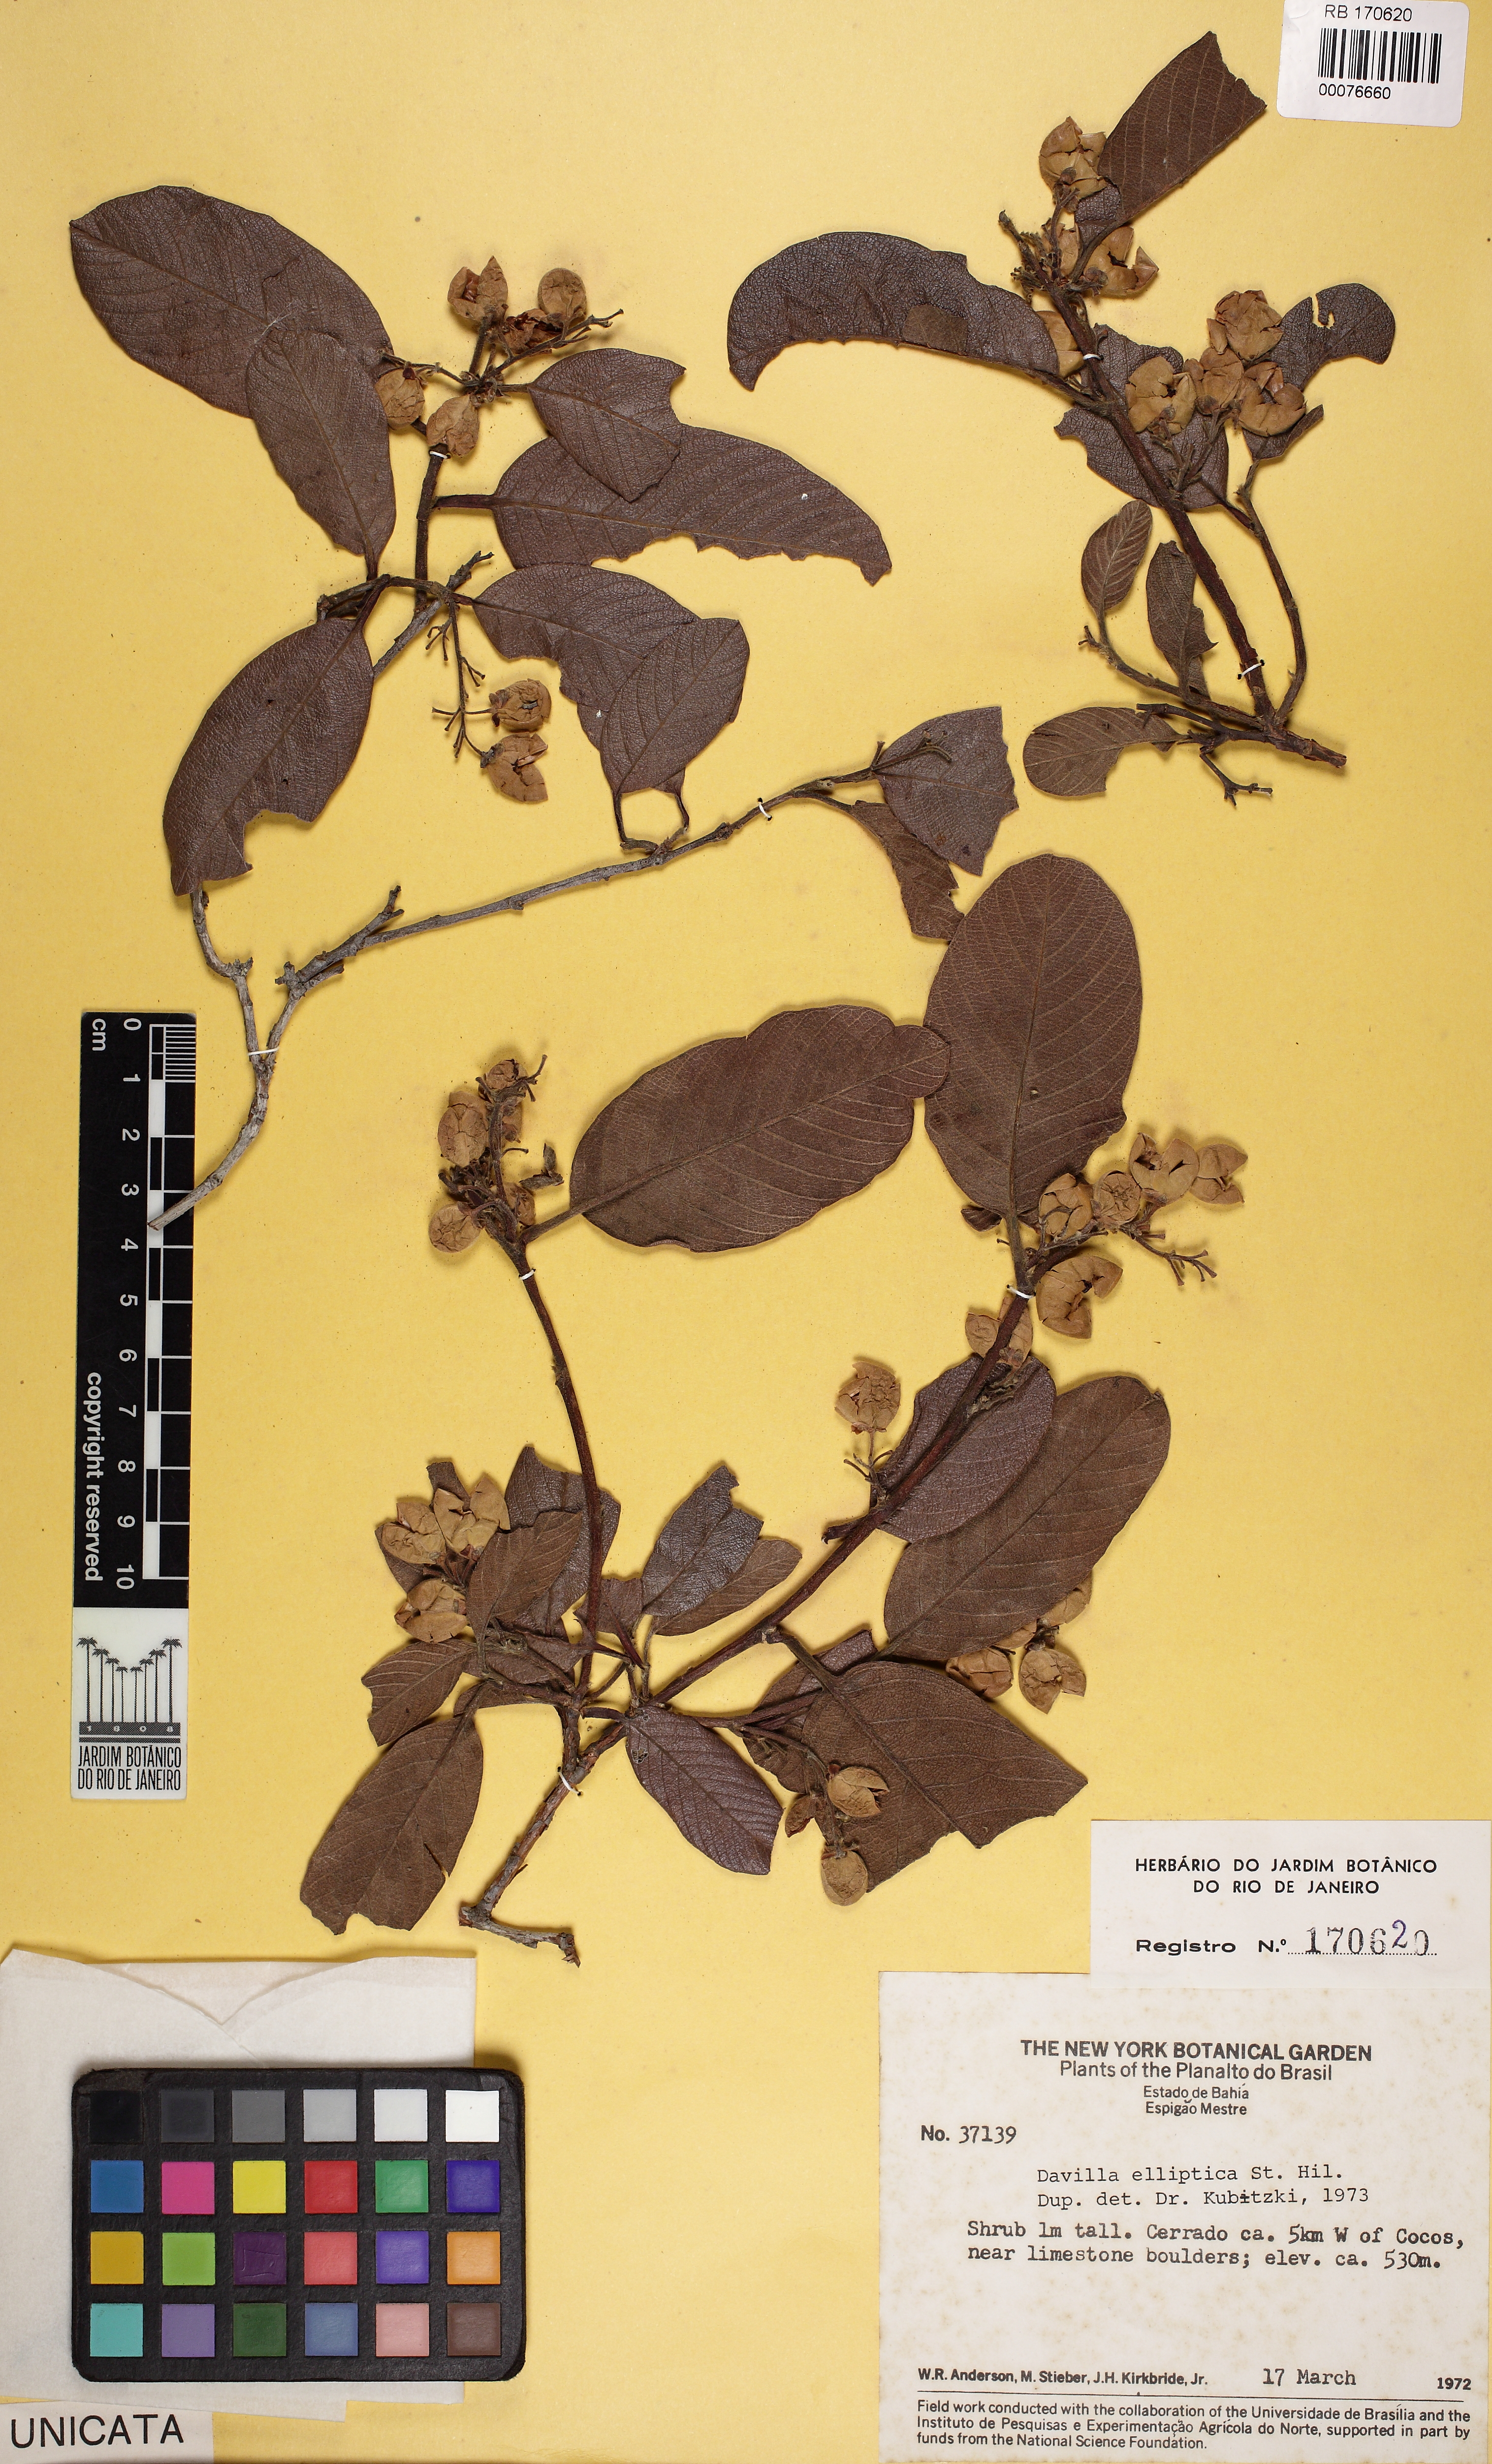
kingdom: Plantae
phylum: Tracheophyta
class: Magnoliopsida
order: Dilleniales
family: Dilleniaceae
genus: Davilla
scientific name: Davilla elliptica
